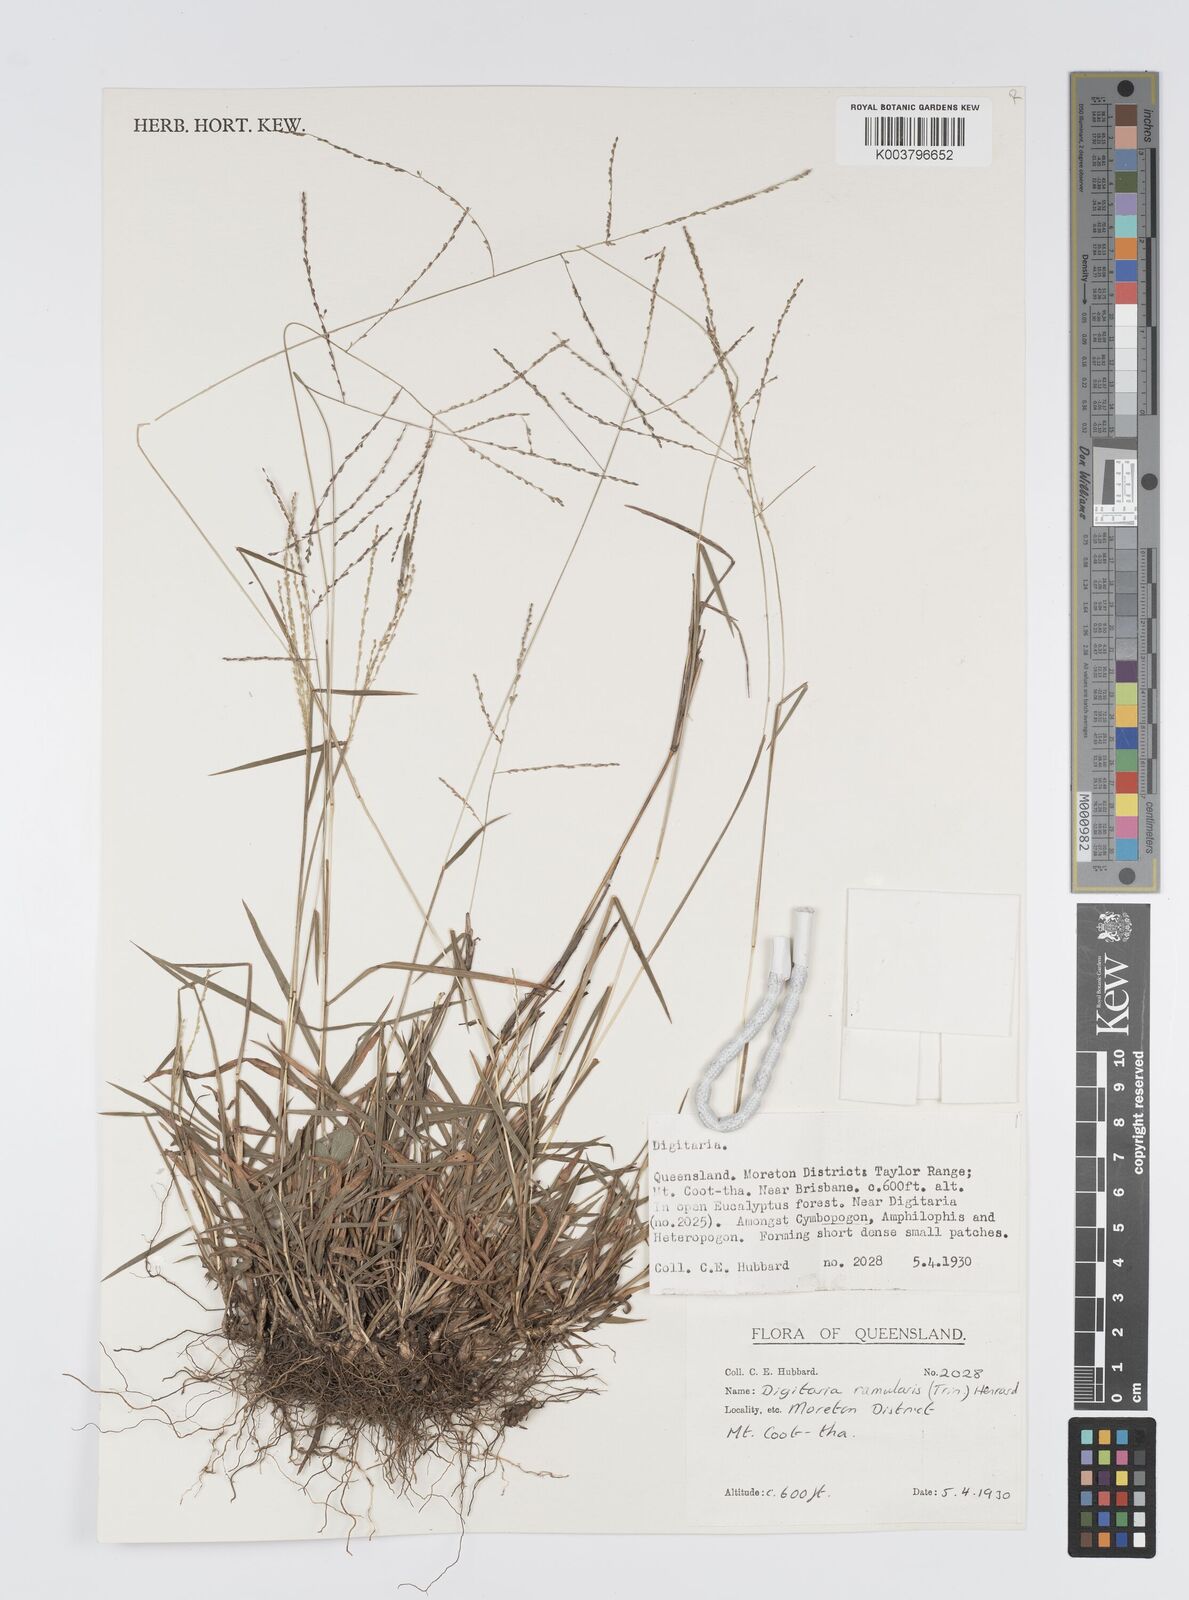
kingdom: Plantae
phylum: Tracheophyta
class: Liliopsida
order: Poales
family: Poaceae
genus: Digitaria
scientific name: Digitaria ramularis
